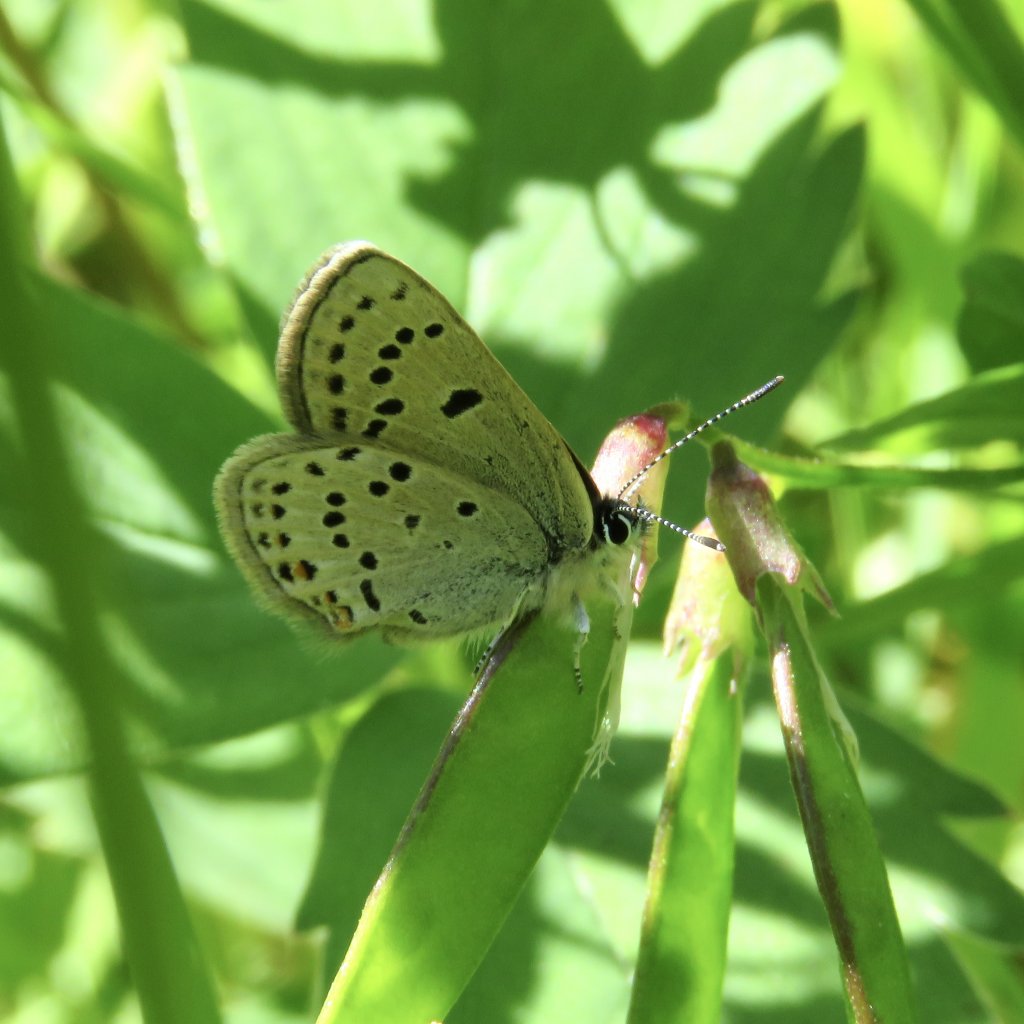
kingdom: Animalia
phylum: Arthropoda
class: Insecta
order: Lepidoptera
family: Lycaenidae
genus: Plebejus
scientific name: Plebejus saepiolus
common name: Greenish Blue
